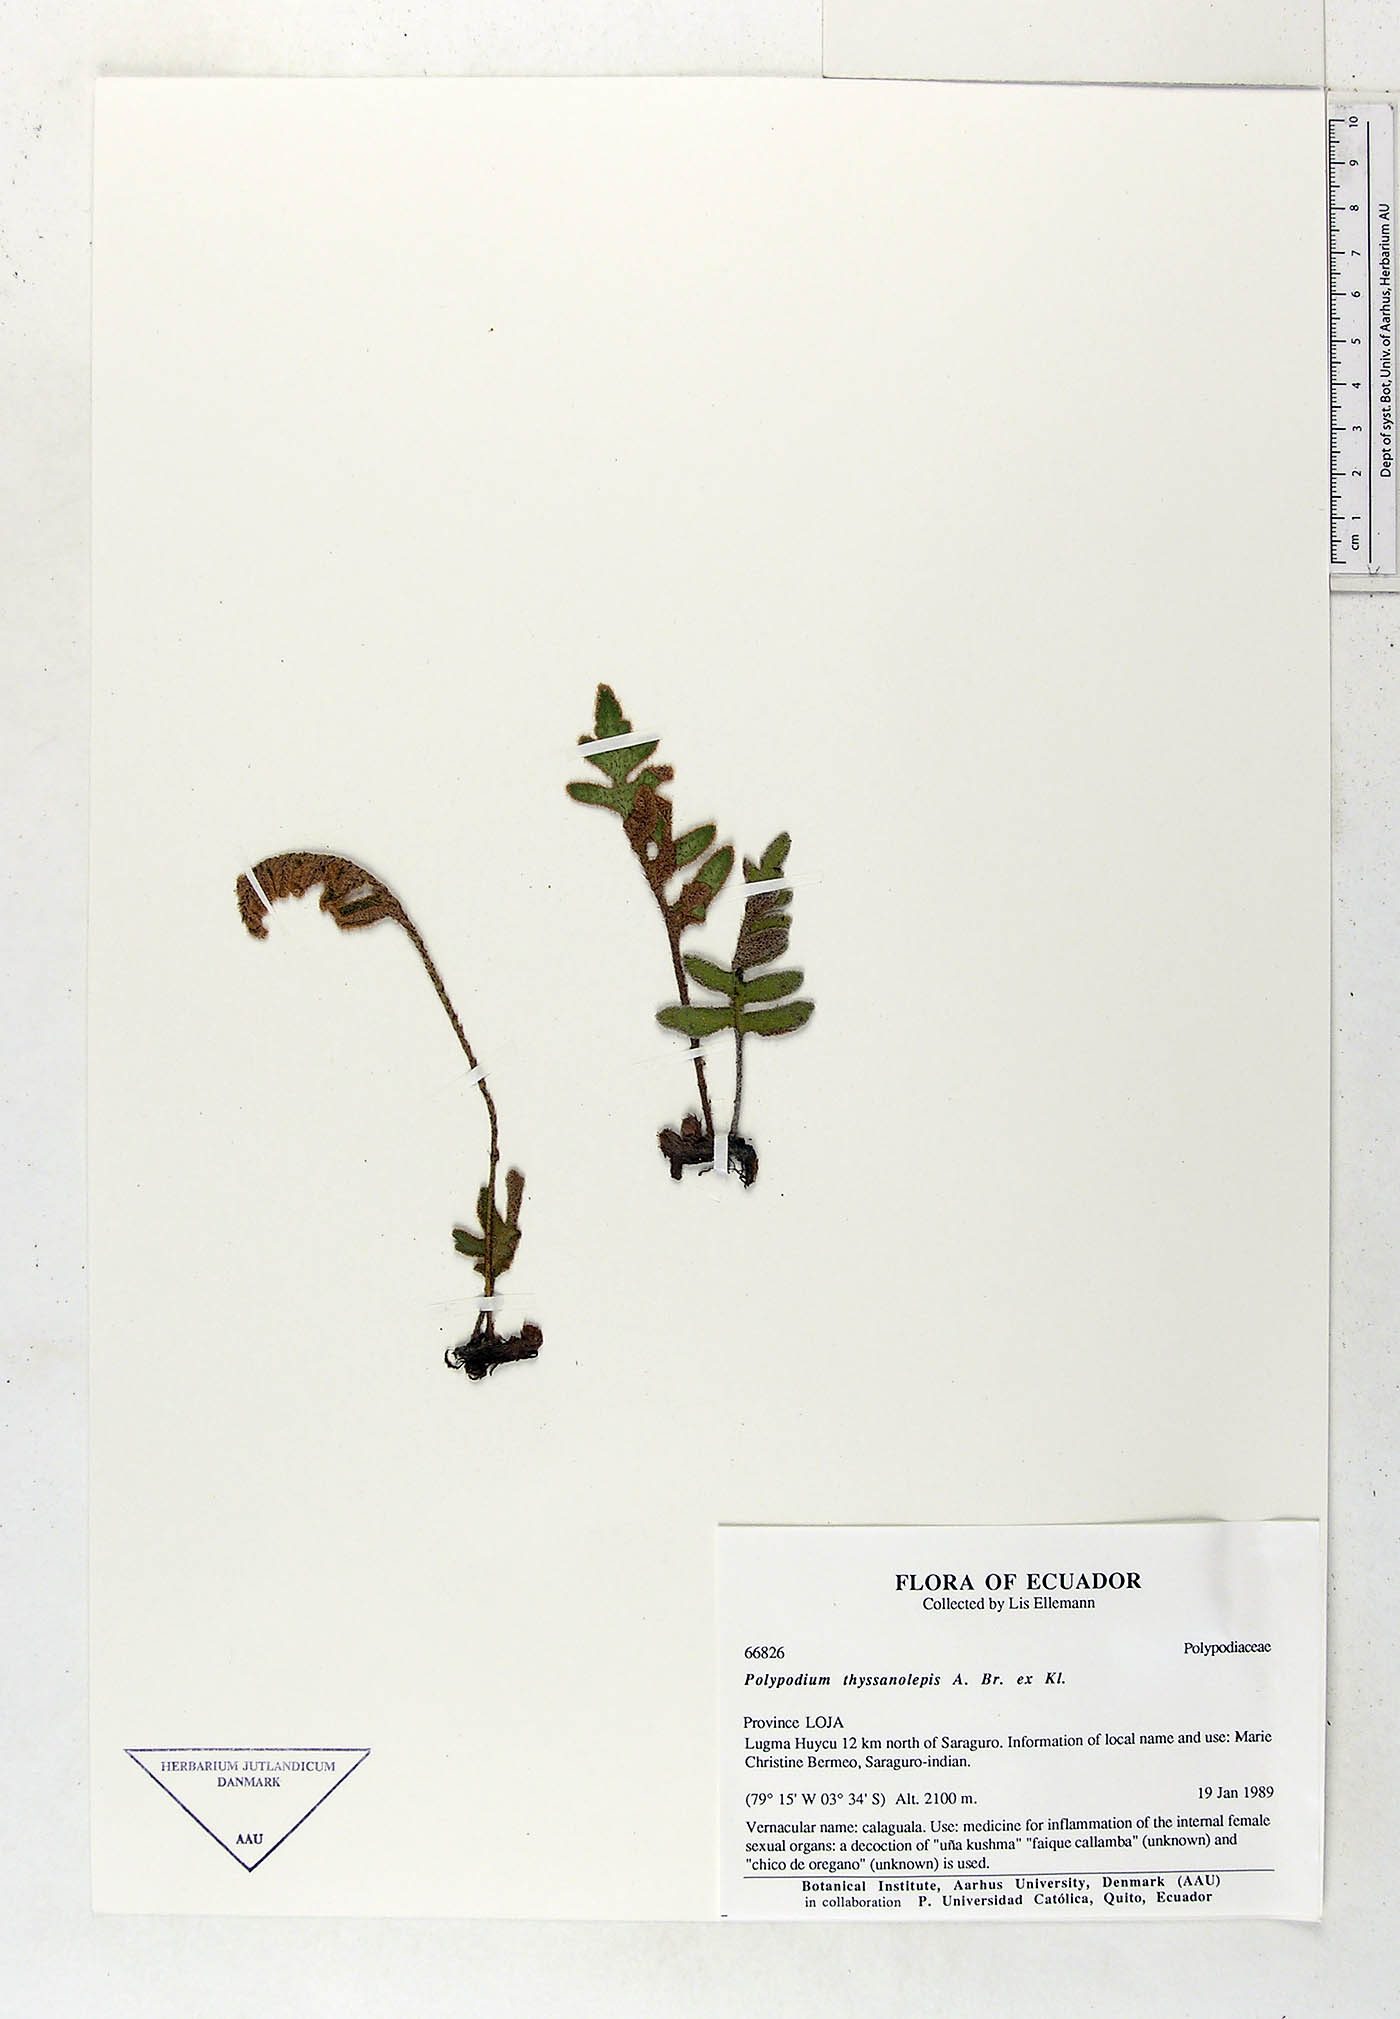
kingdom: Plantae
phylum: Tracheophyta
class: Polypodiopsida
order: Polypodiales
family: Polypodiaceae
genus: Pleopeltis
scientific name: Pleopeltis thyssanolepis
